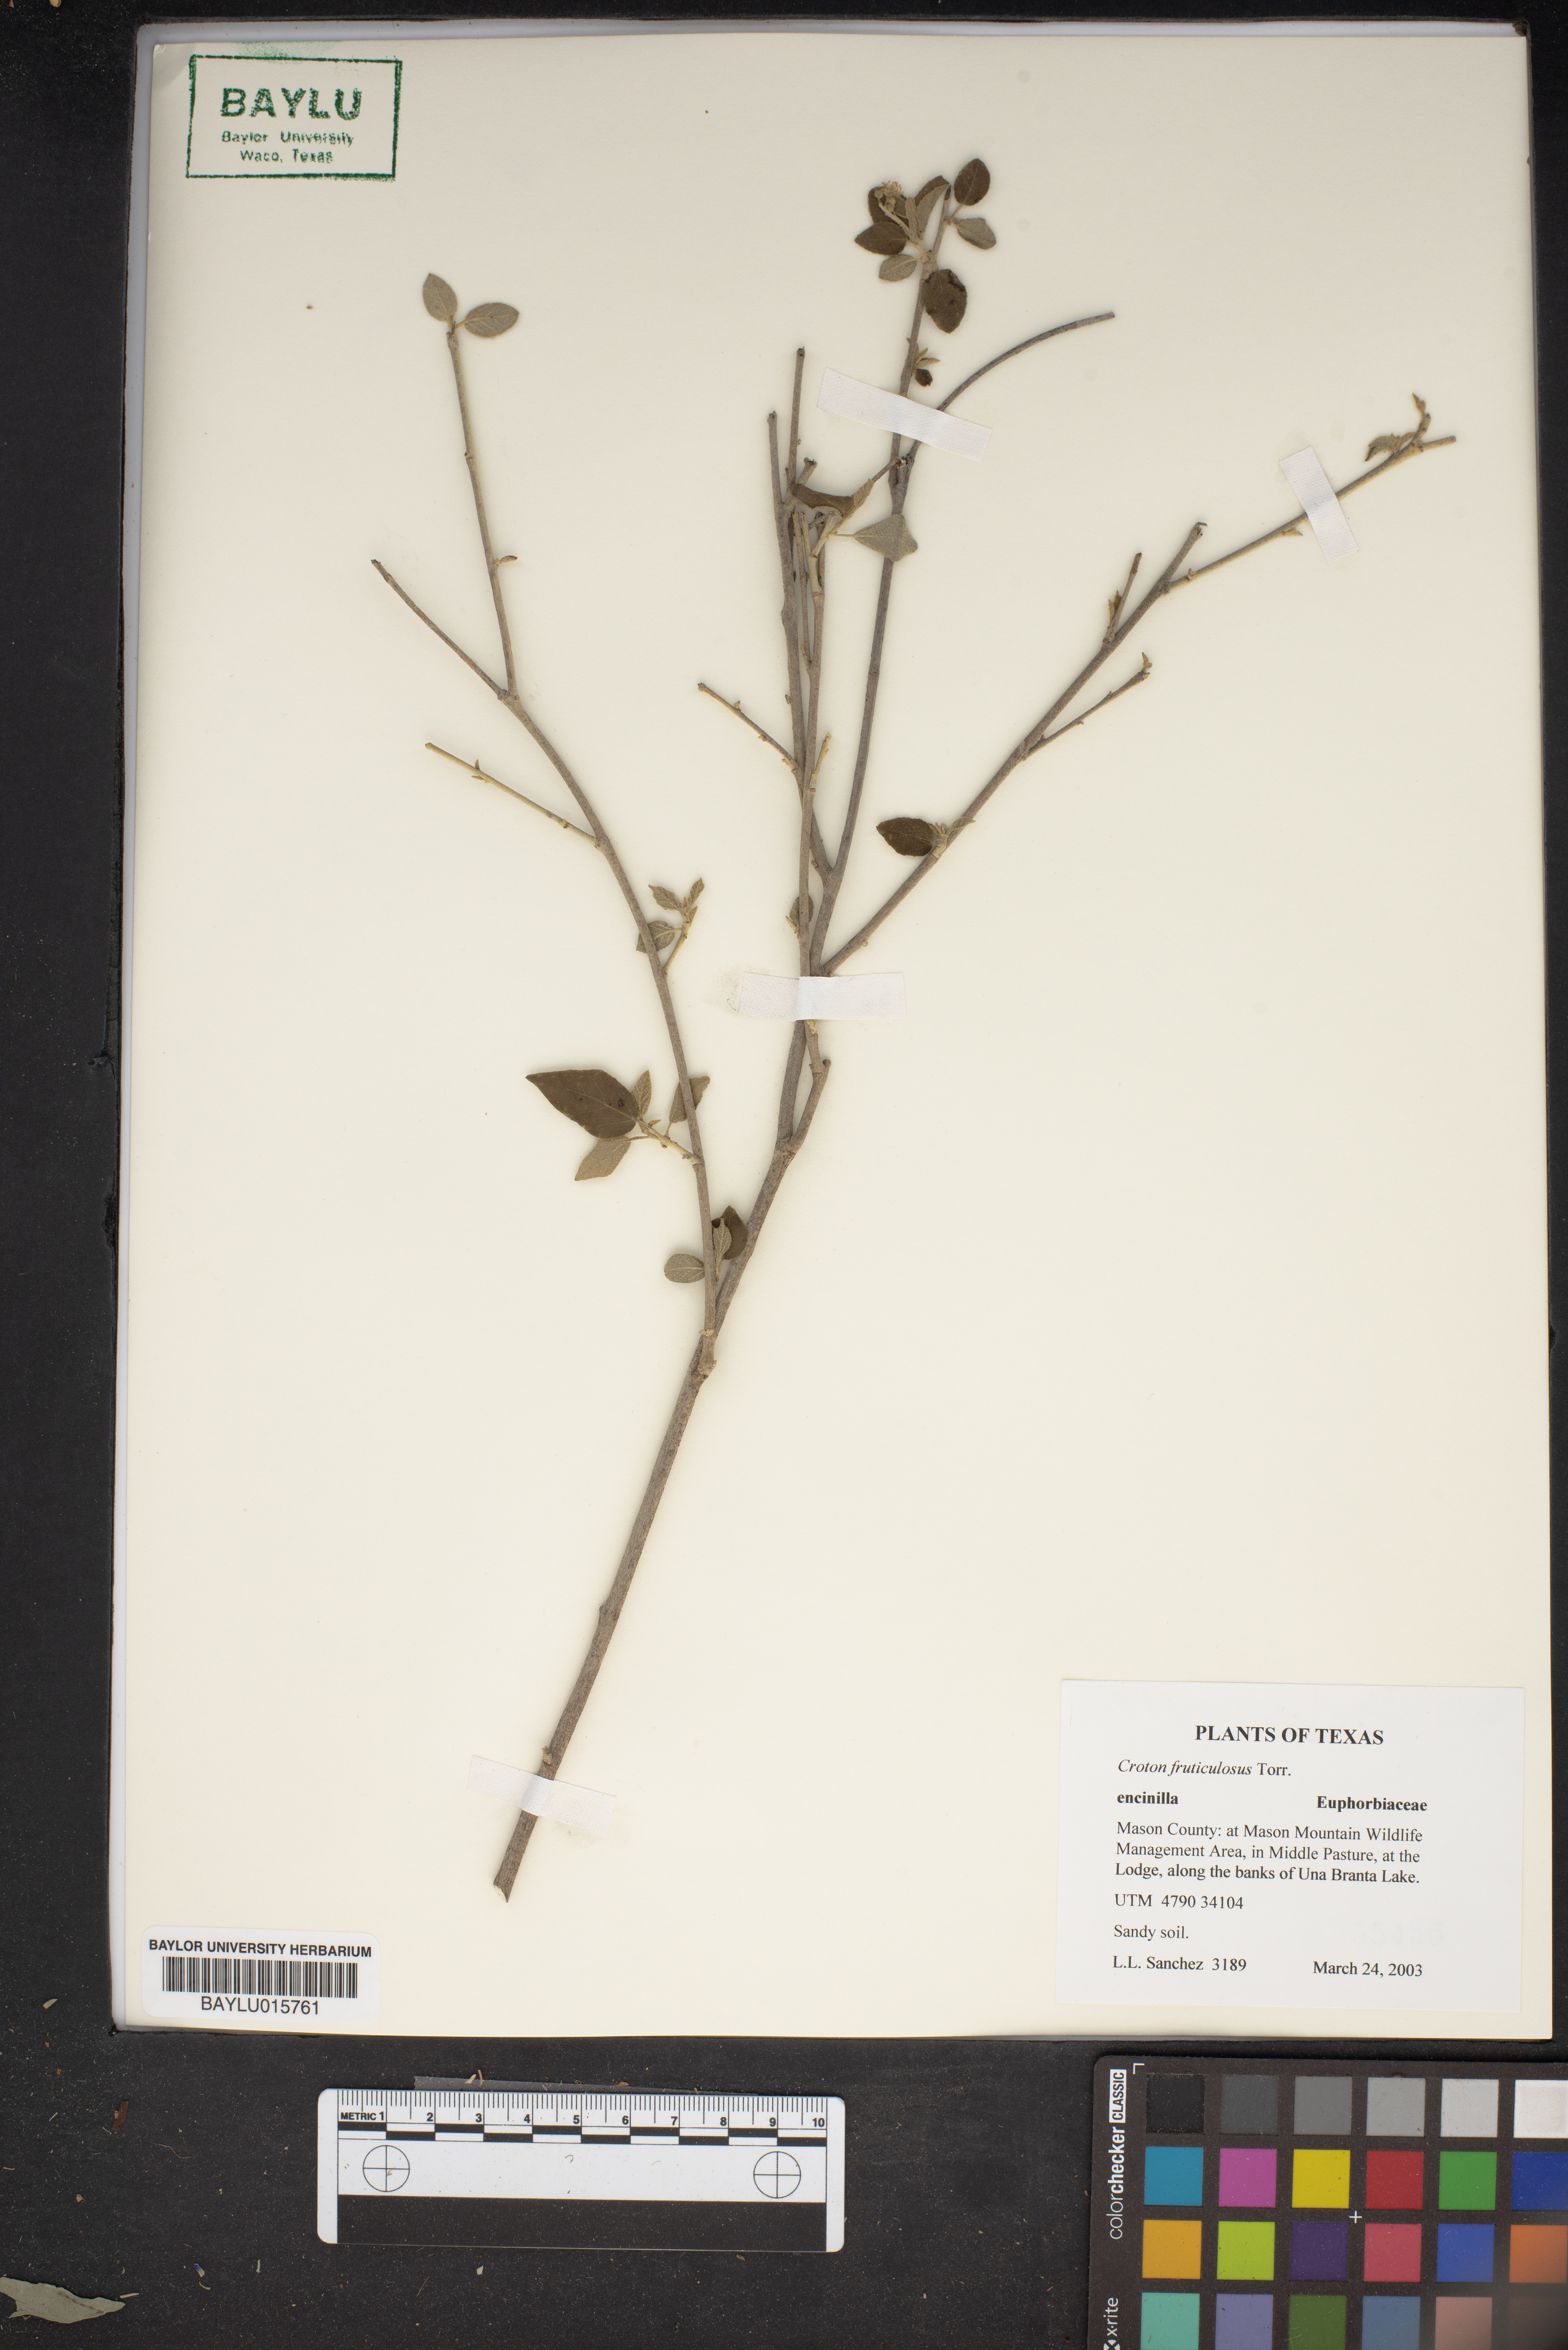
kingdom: Plantae
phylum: Tracheophyta
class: Magnoliopsida
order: Malpighiales
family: Euphorbiaceae
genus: Croton
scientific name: Croton fruticulosus
